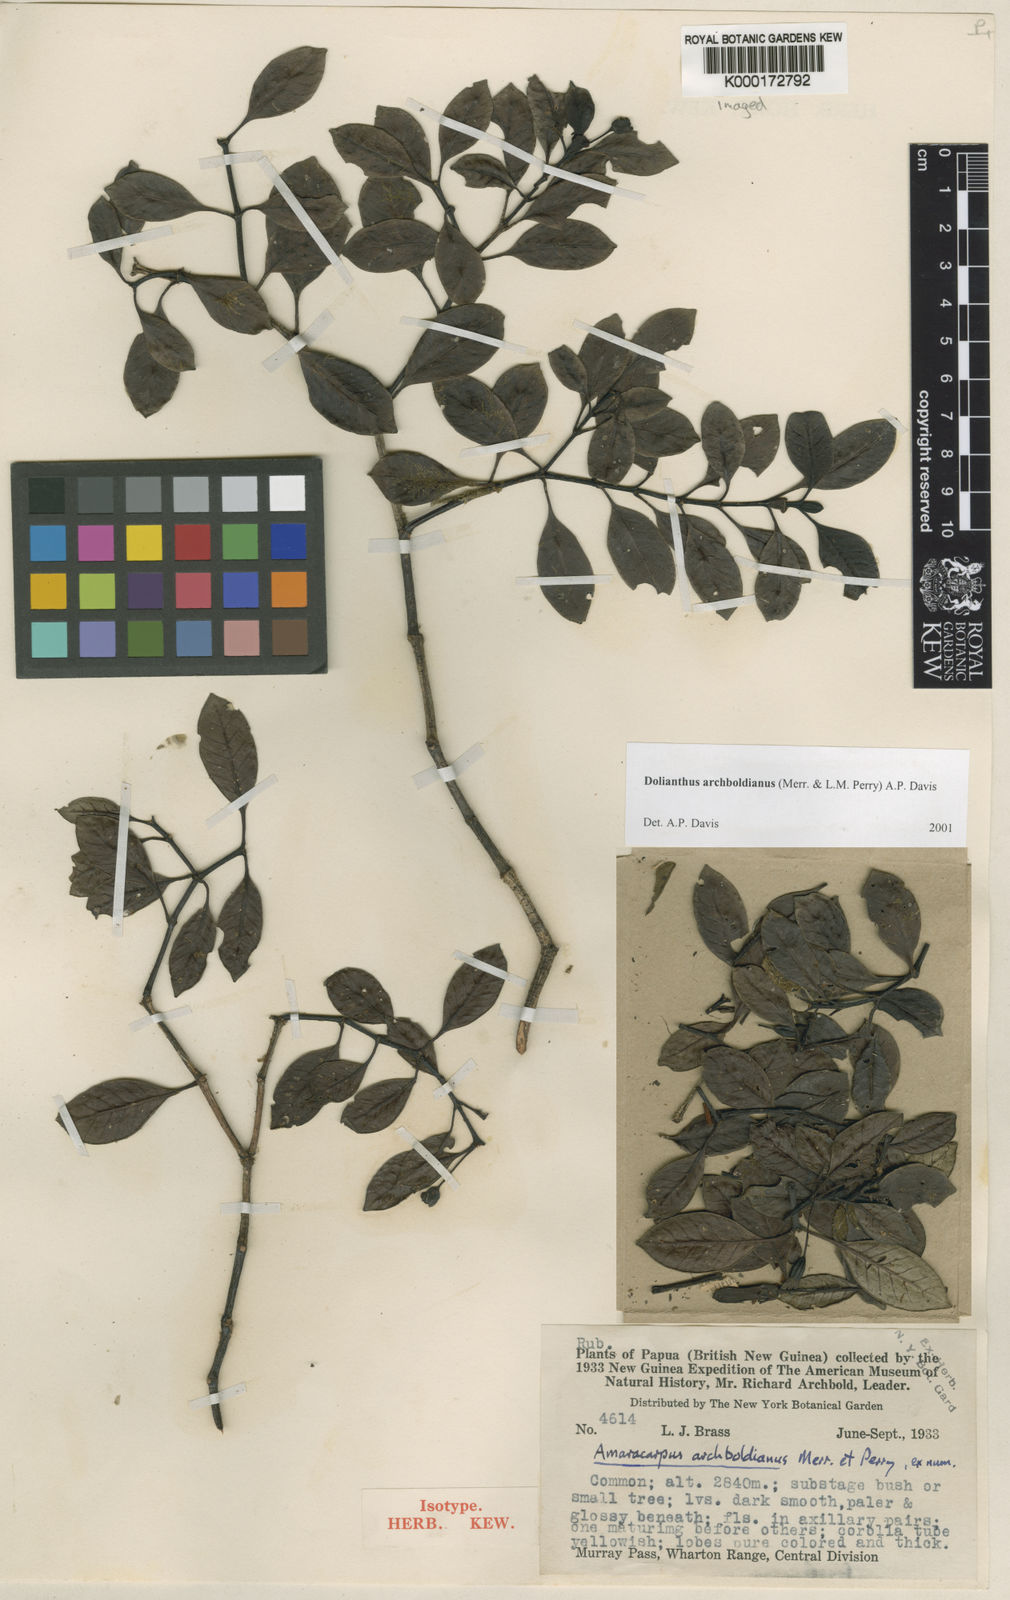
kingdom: Plantae
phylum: Tracheophyta
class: Magnoliopsida
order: Gentianales
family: Rubiaceae
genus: Dolianthus
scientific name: Dolianthus archboldianus
